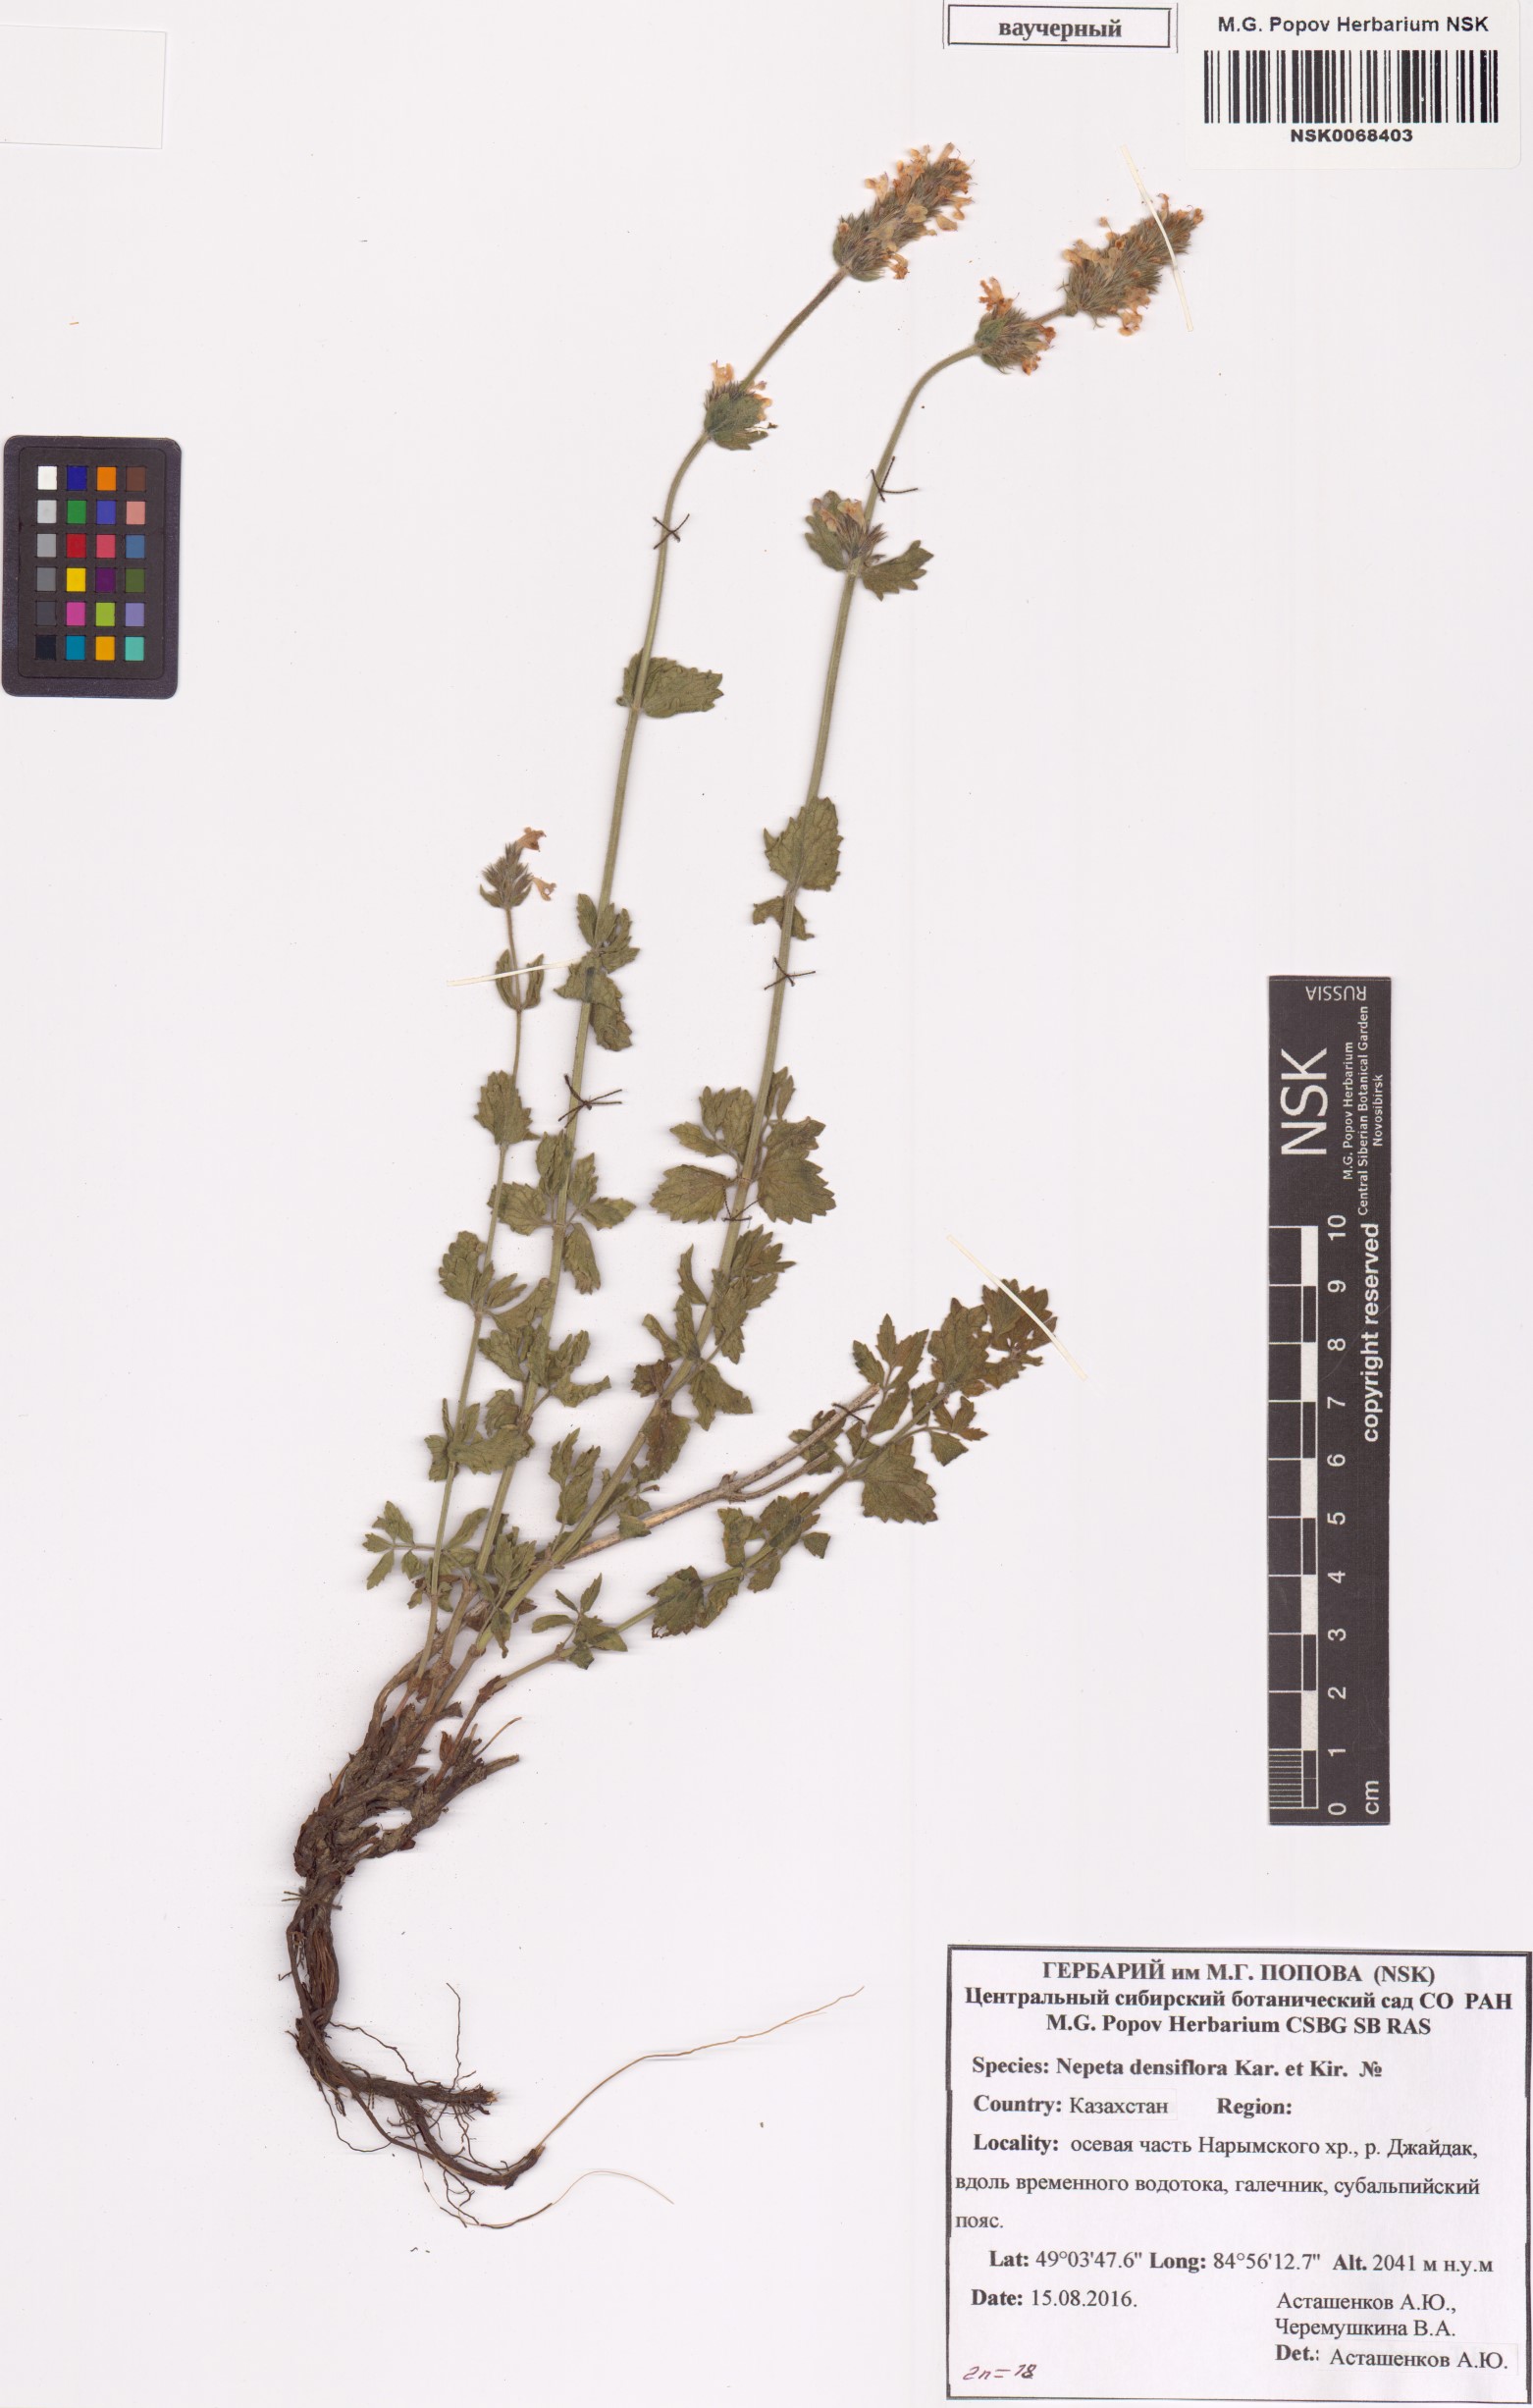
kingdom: Plantae
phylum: Tracheophyta
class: Magnoliopsida
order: Lamiales
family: Lamiaceae
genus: Nepeta
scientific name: Nepeta densiflora
